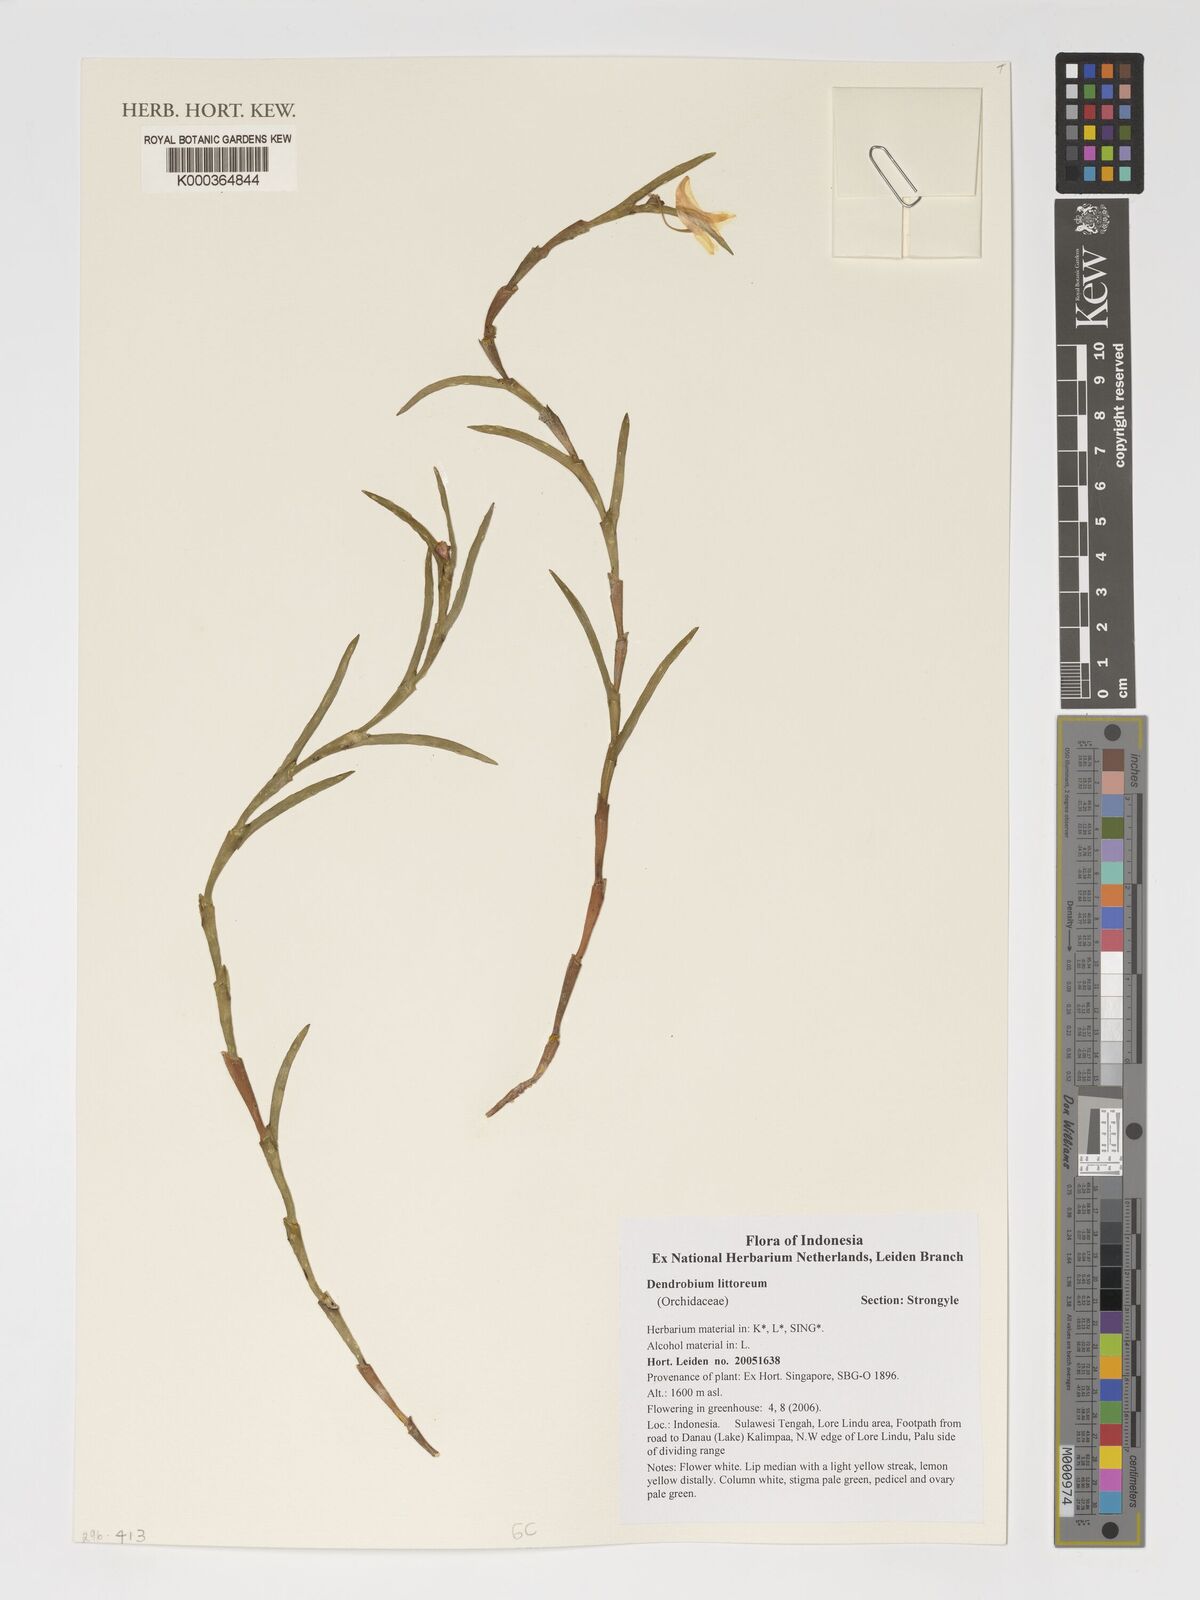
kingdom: Plantae
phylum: Tracheophyta
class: Liliopsida
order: Asparagales
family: Orchidaceae
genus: Dendrobium
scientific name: Dendrobium sphenochilum
